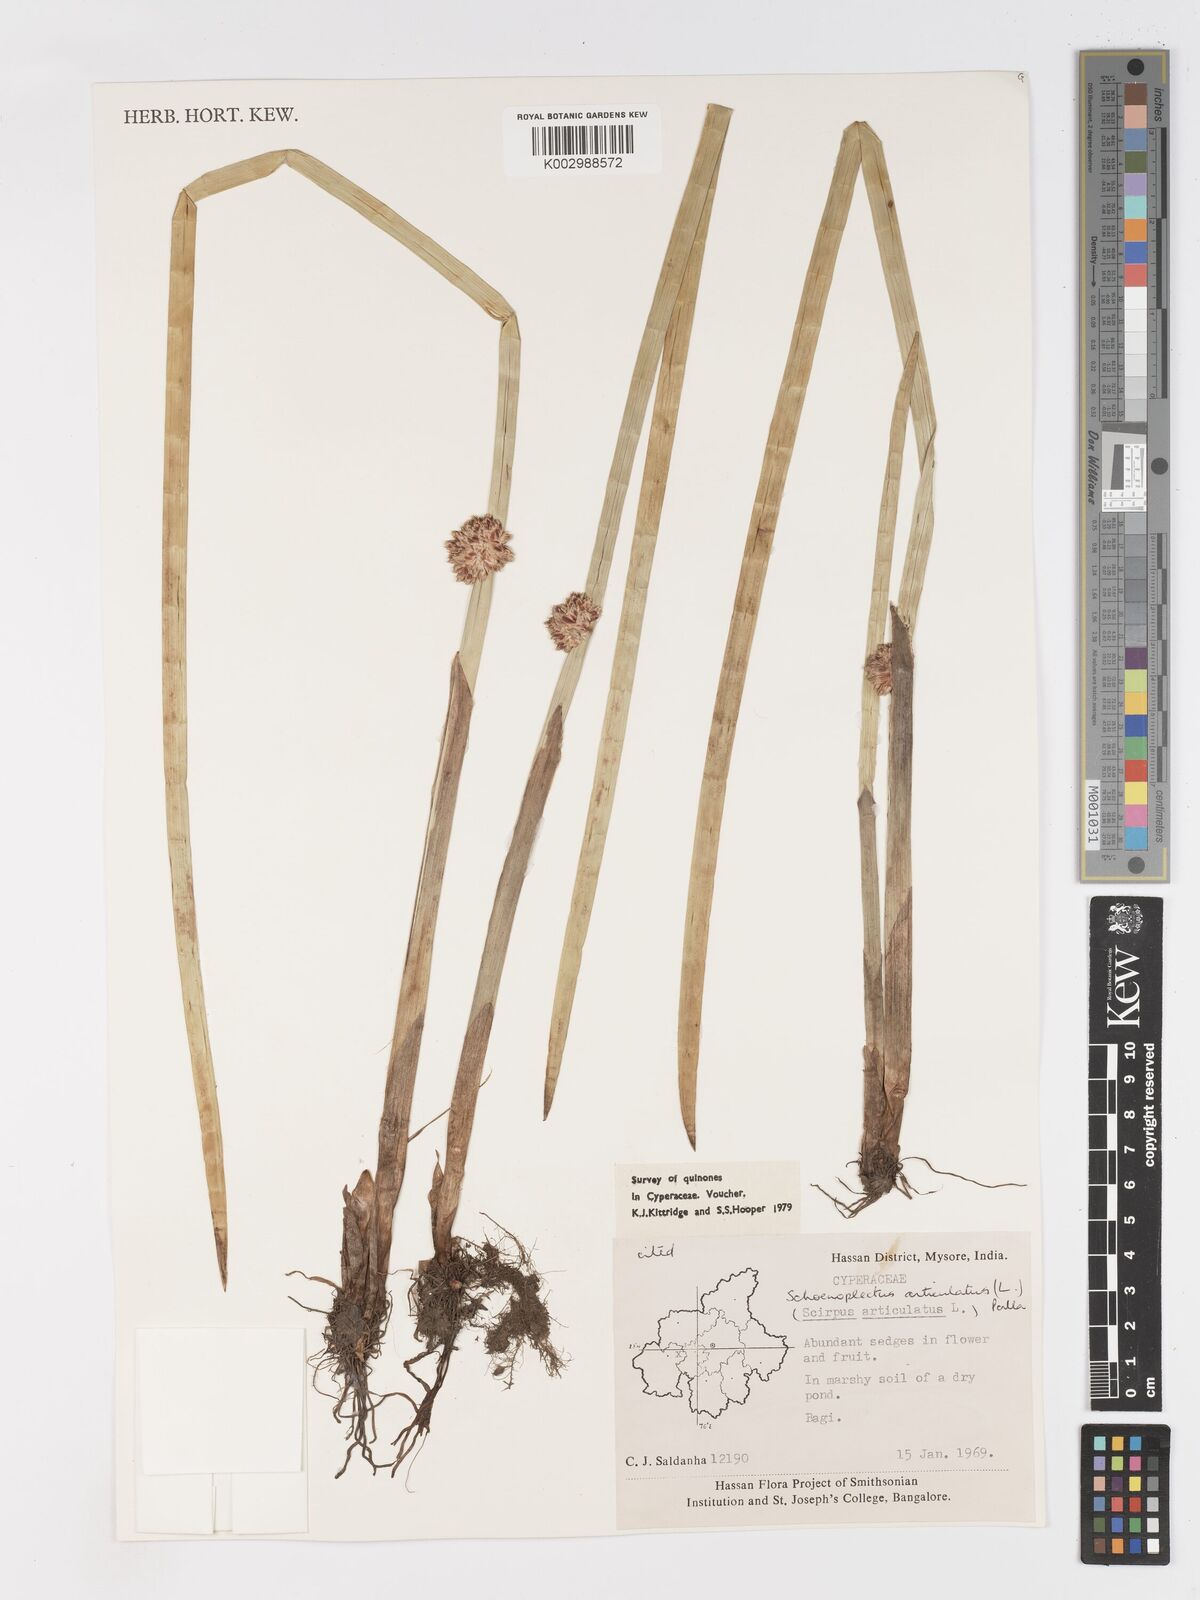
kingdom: Plantae
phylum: Tracheophyta
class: Liliopsida
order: Poales
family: Cyperaceae
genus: Schoenoplectiella
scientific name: Schoenoplectiella articulata
